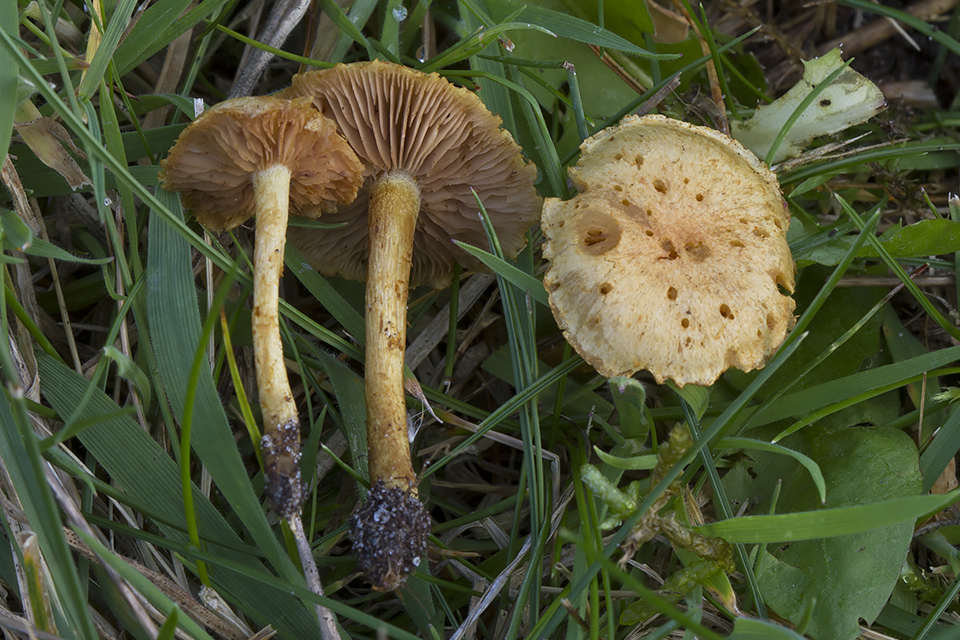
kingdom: Fungi
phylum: Basidiomycota
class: Agaricomycetes
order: Agaricales
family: Strophariaceae
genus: Pholiota
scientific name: Pholiota conissans
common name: pile-skælhat
